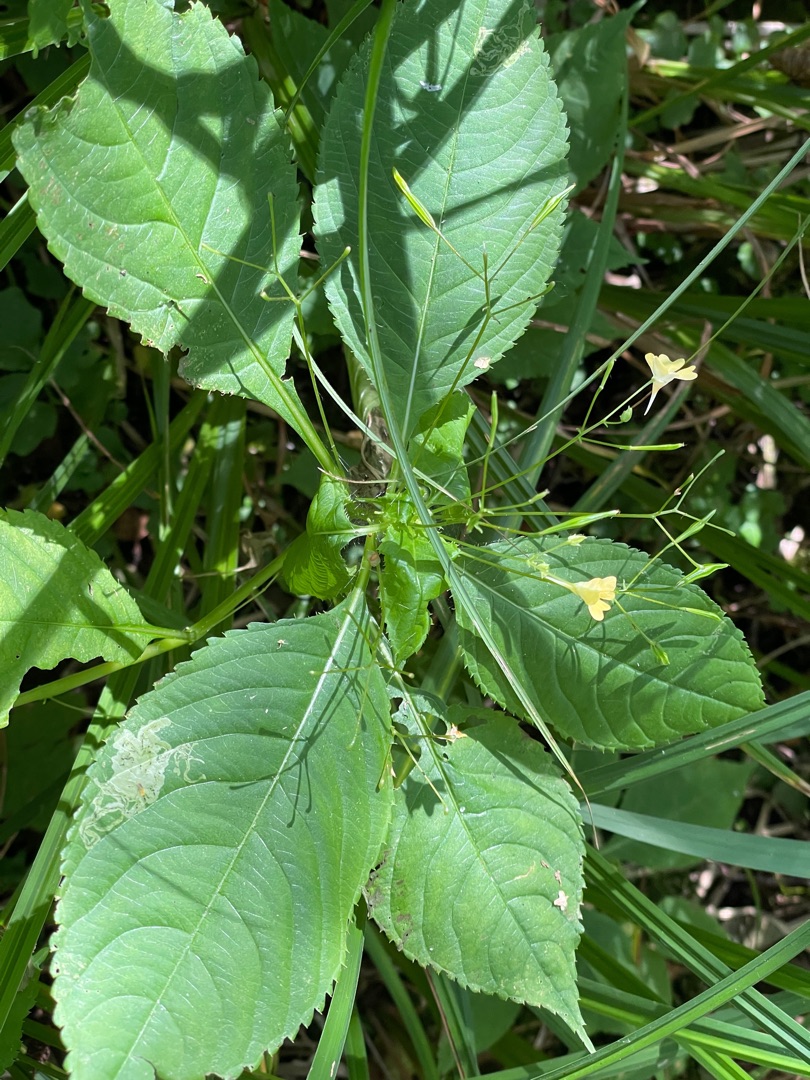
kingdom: Plantae
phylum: Tracheophyta
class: Magnoliopsida
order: Ericales
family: Balsaminaceae
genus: Impatiens
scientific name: Impatiens parviflora
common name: Småblomstret balsamin
